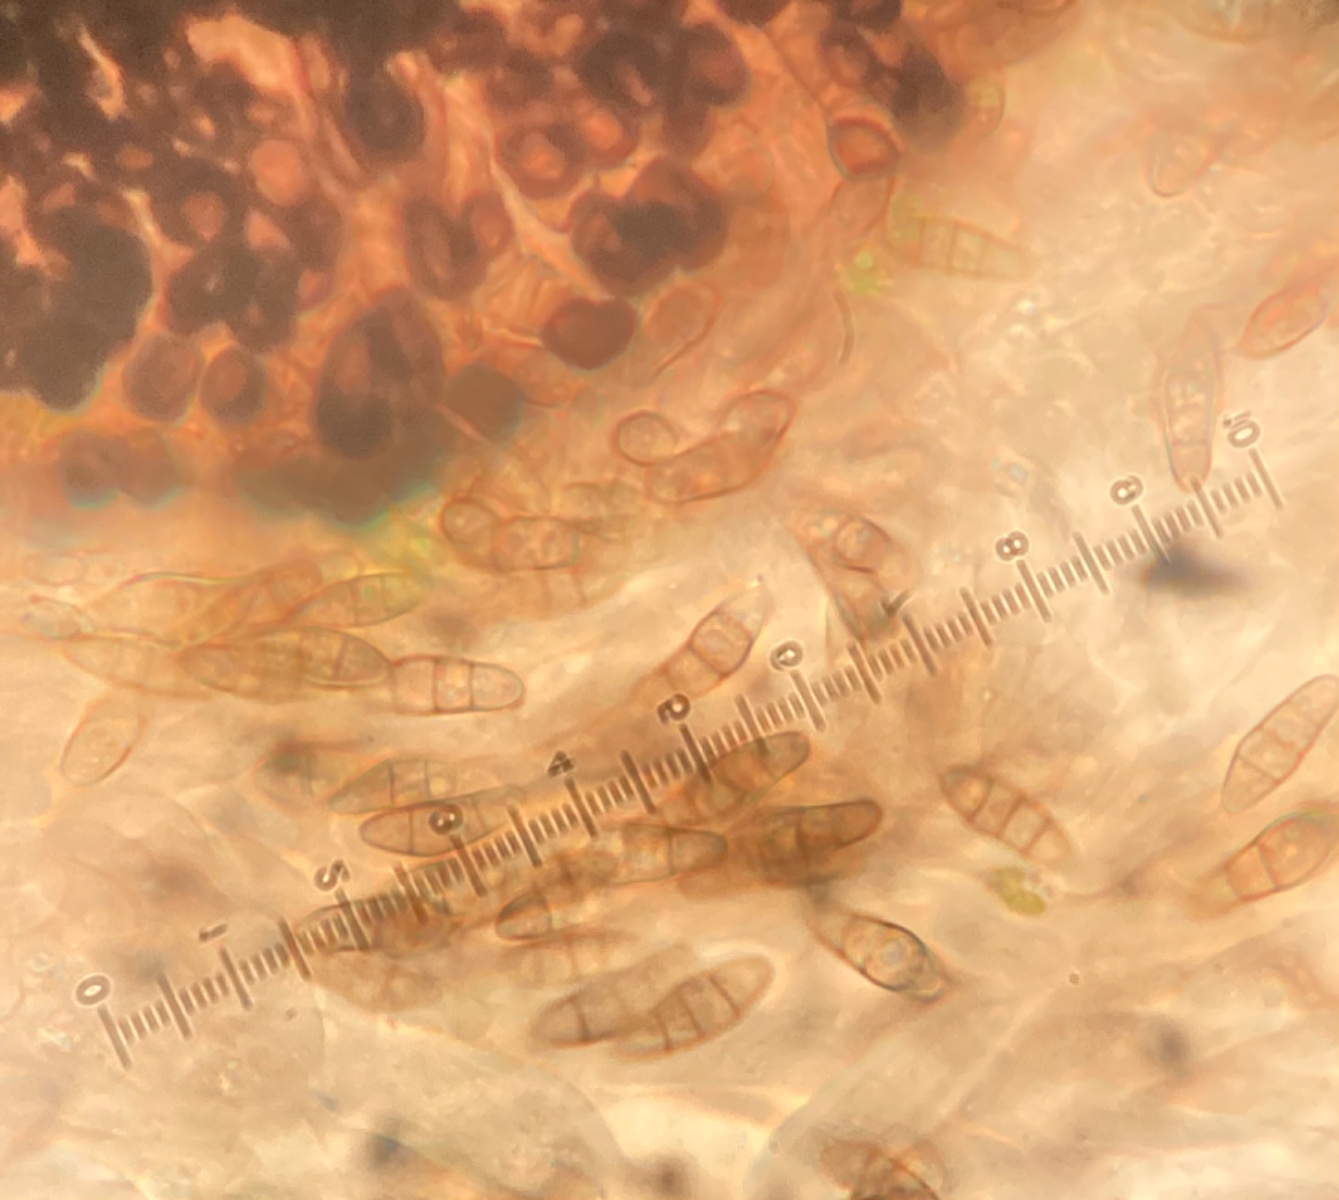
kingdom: Fungi
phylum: Ascomycota
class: Eurotiomycetes
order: Chaetothyriales
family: Herpotrichiellaceae
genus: Capronia
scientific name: Capronia
